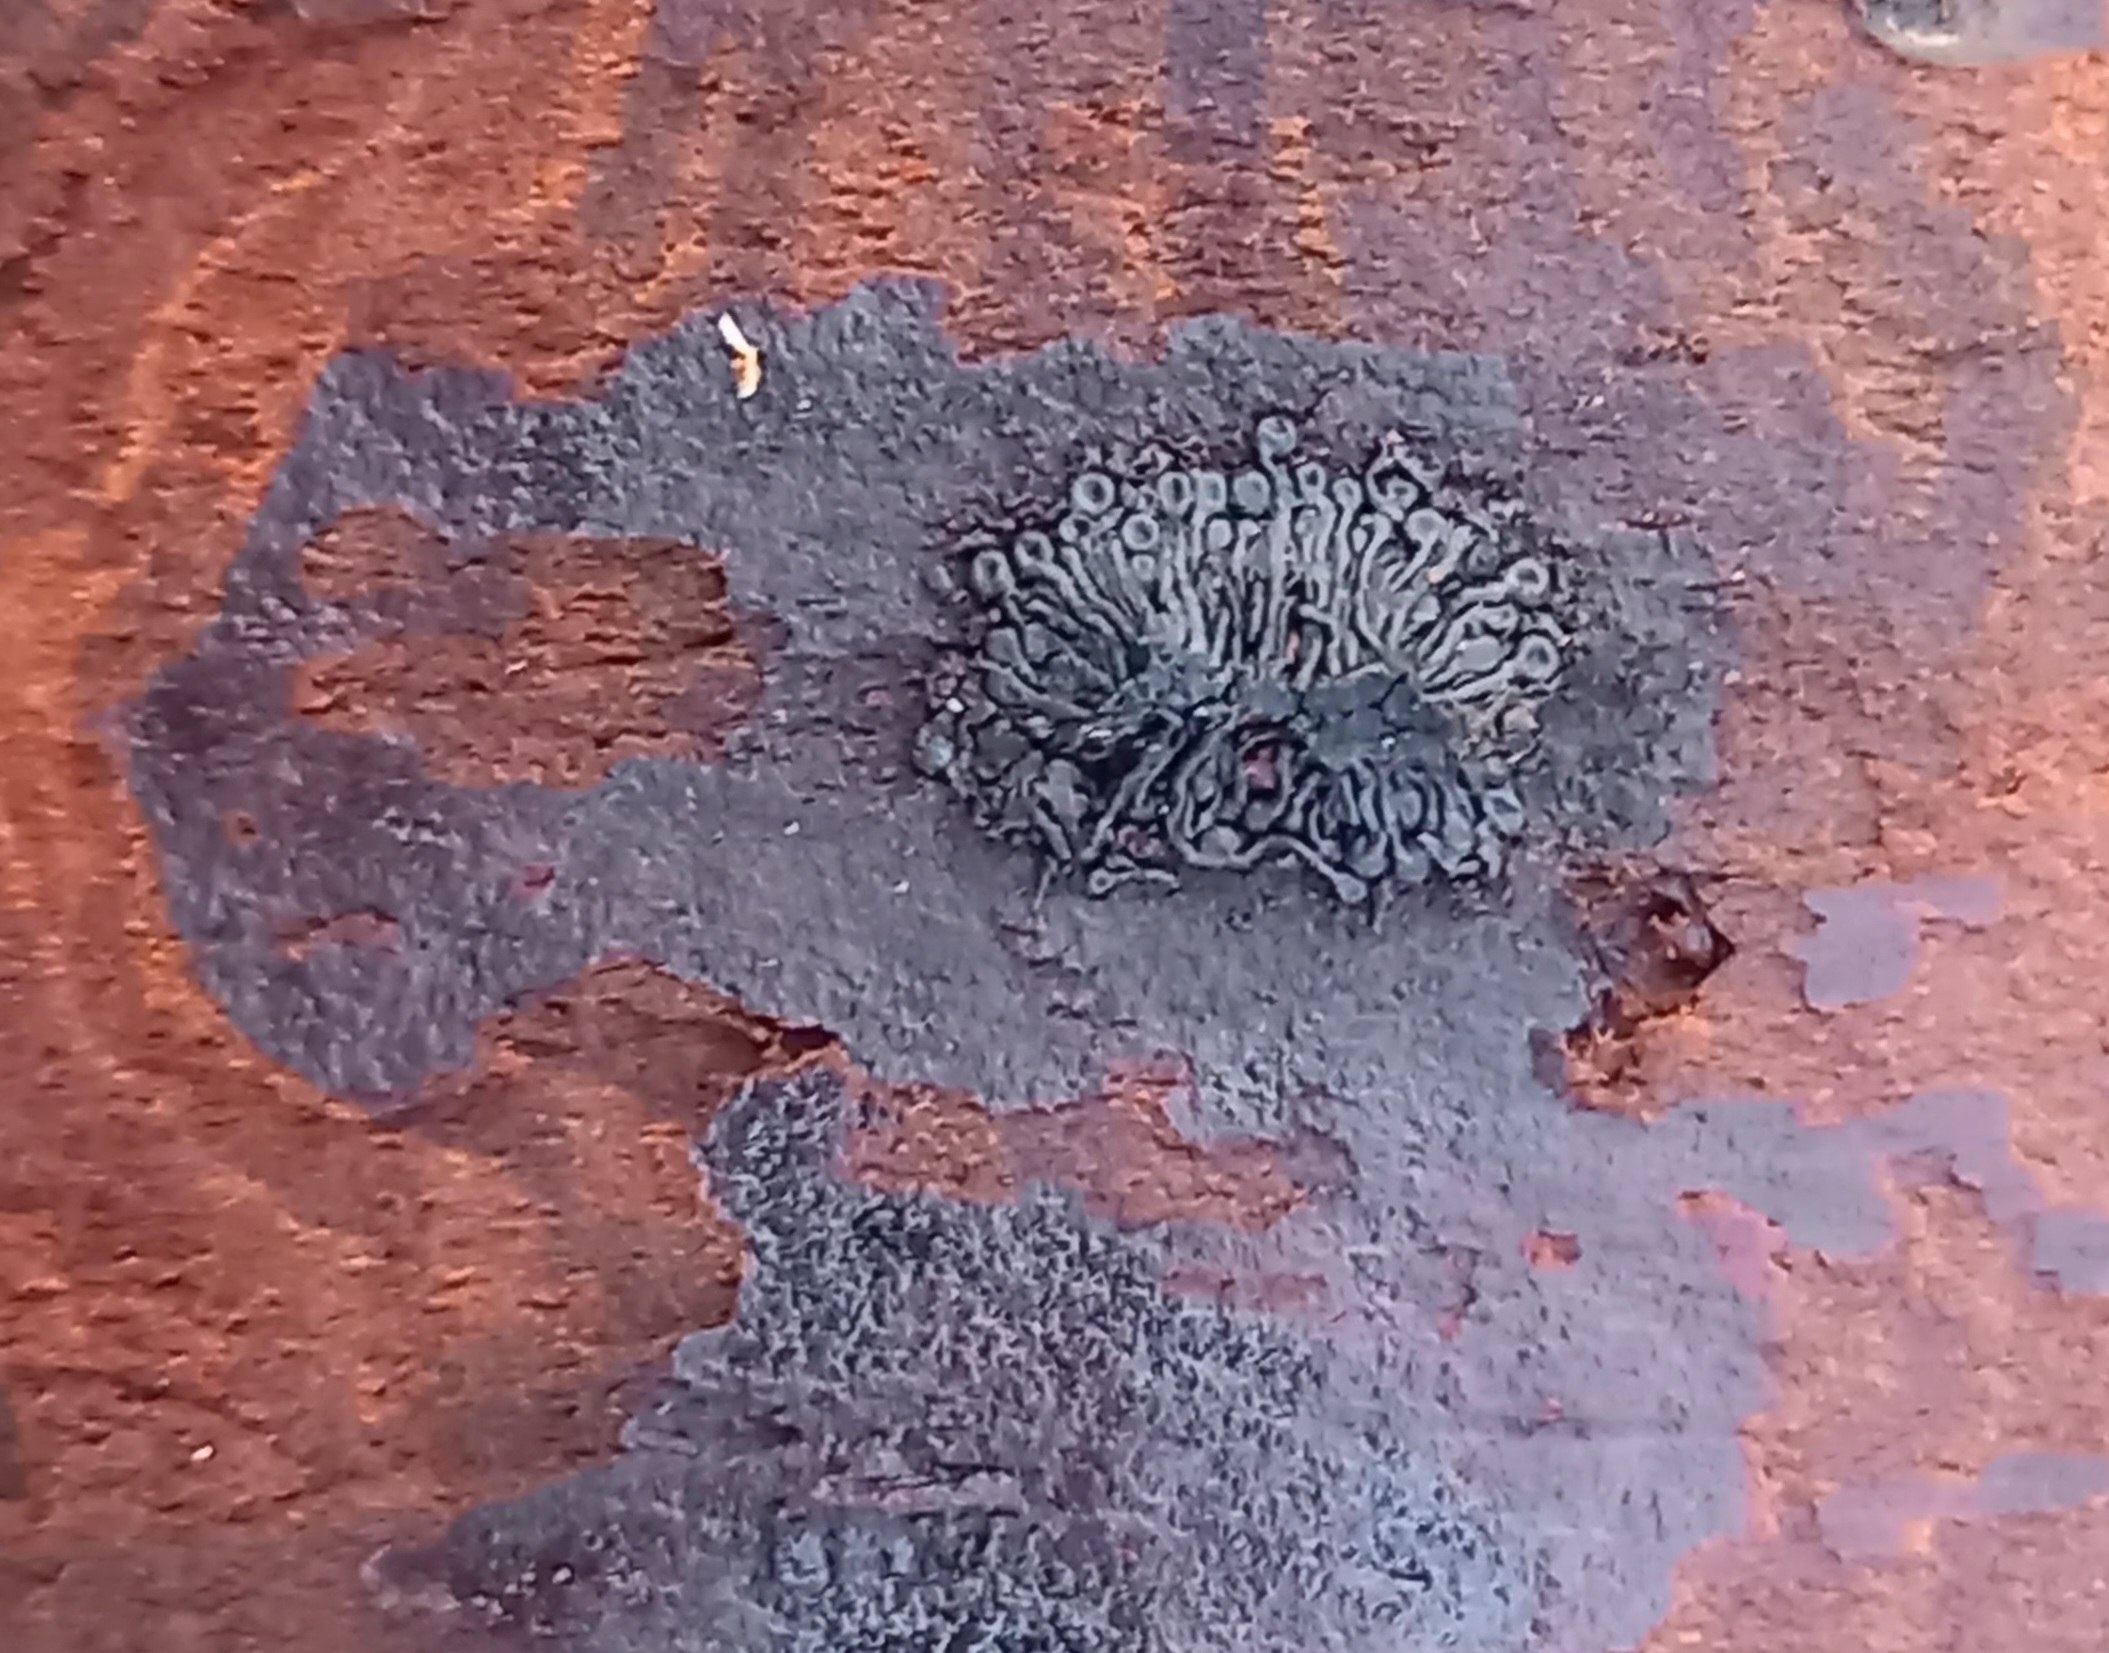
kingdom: Fungi
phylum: Ascomycota
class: Sordariomycetes
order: Calosphaeriales
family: Calosphaeriaceae
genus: Calosphaeria
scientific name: Calosphaeria pulchella
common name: smuk slyngkerne
